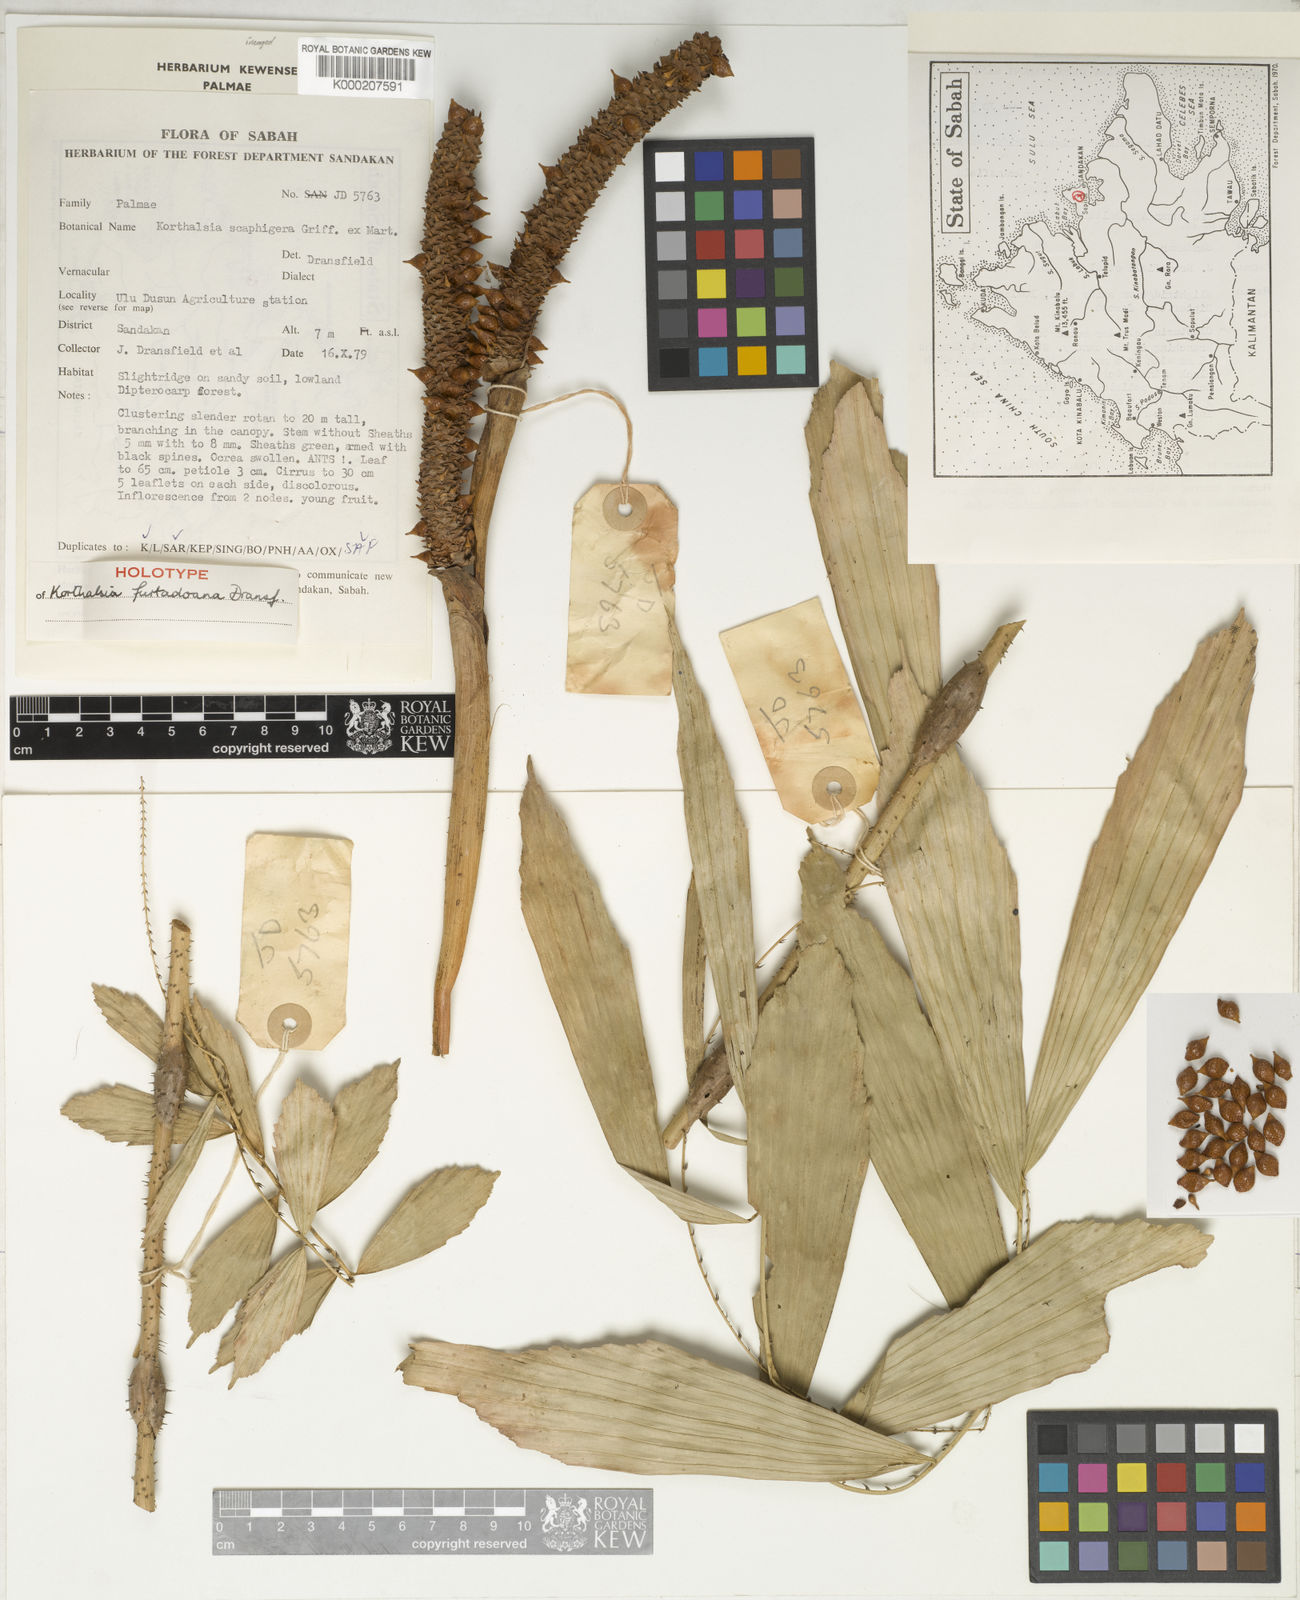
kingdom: Plantae
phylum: Tracheophyta
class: Liliopsida
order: Arecales
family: Arecaceae
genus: Korthalsia
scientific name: Korthalsia furtadoana
